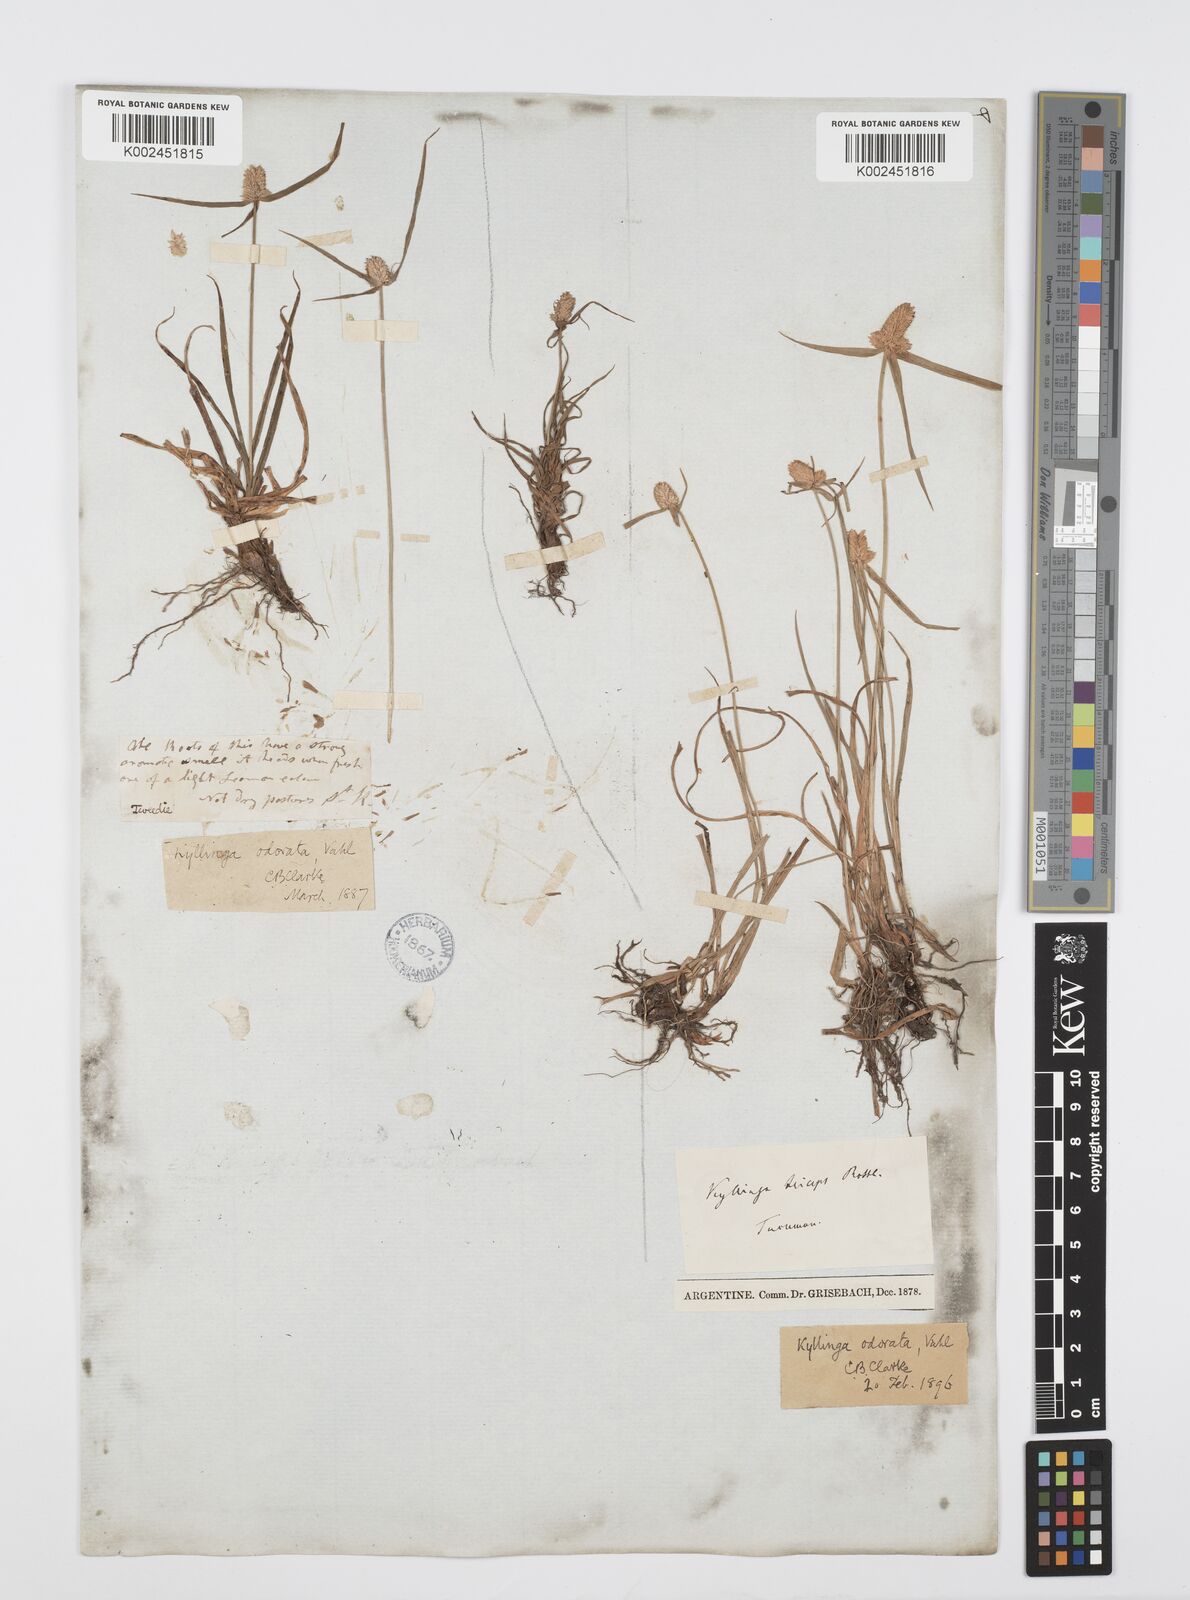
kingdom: Plantae
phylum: Tracheophyta
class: Liliopsida
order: Poales
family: Cyperaceae
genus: Cyperus
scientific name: Cyperus
